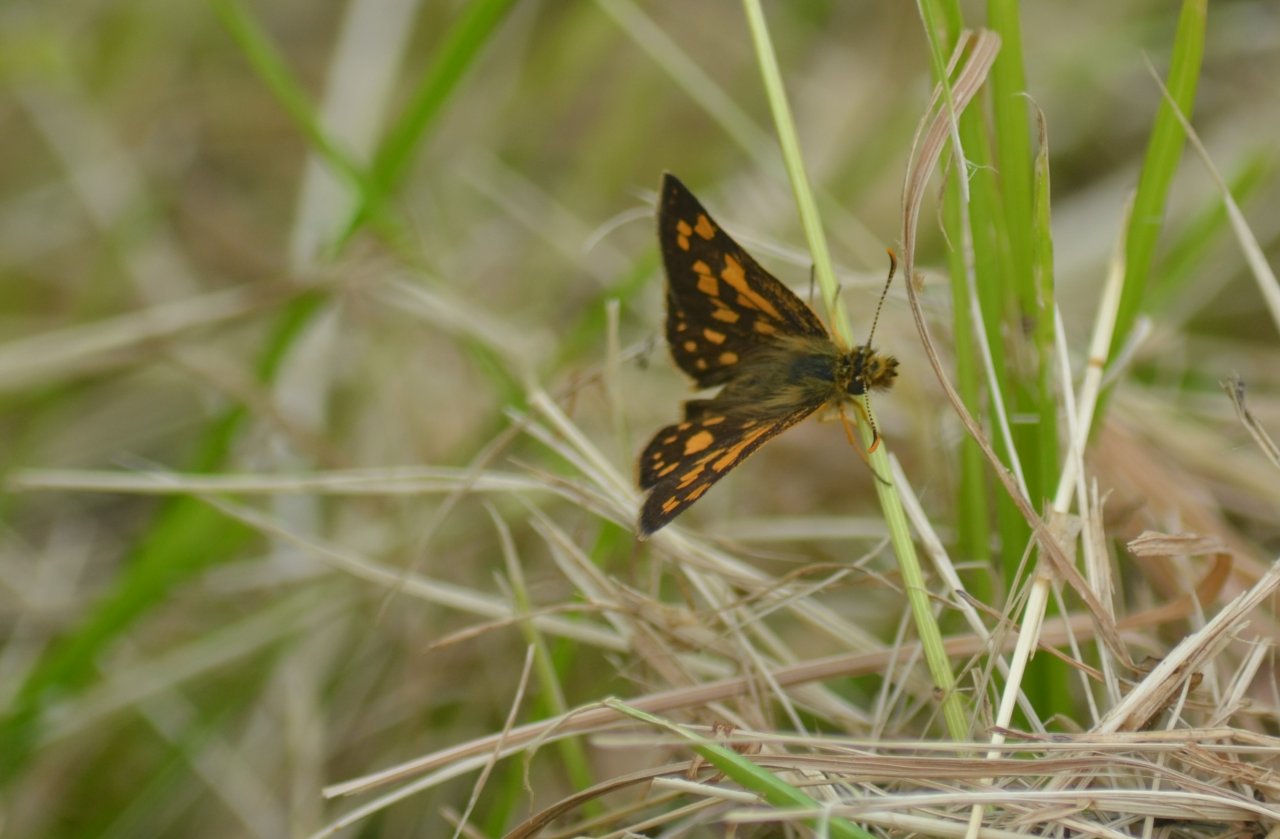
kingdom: Animalia
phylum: Arthropoda
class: Insecta
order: Lepidoptera
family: Hesperiidae
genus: Carterocephalus
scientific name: Carterocephalus palaemon
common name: Chequered Skipper
